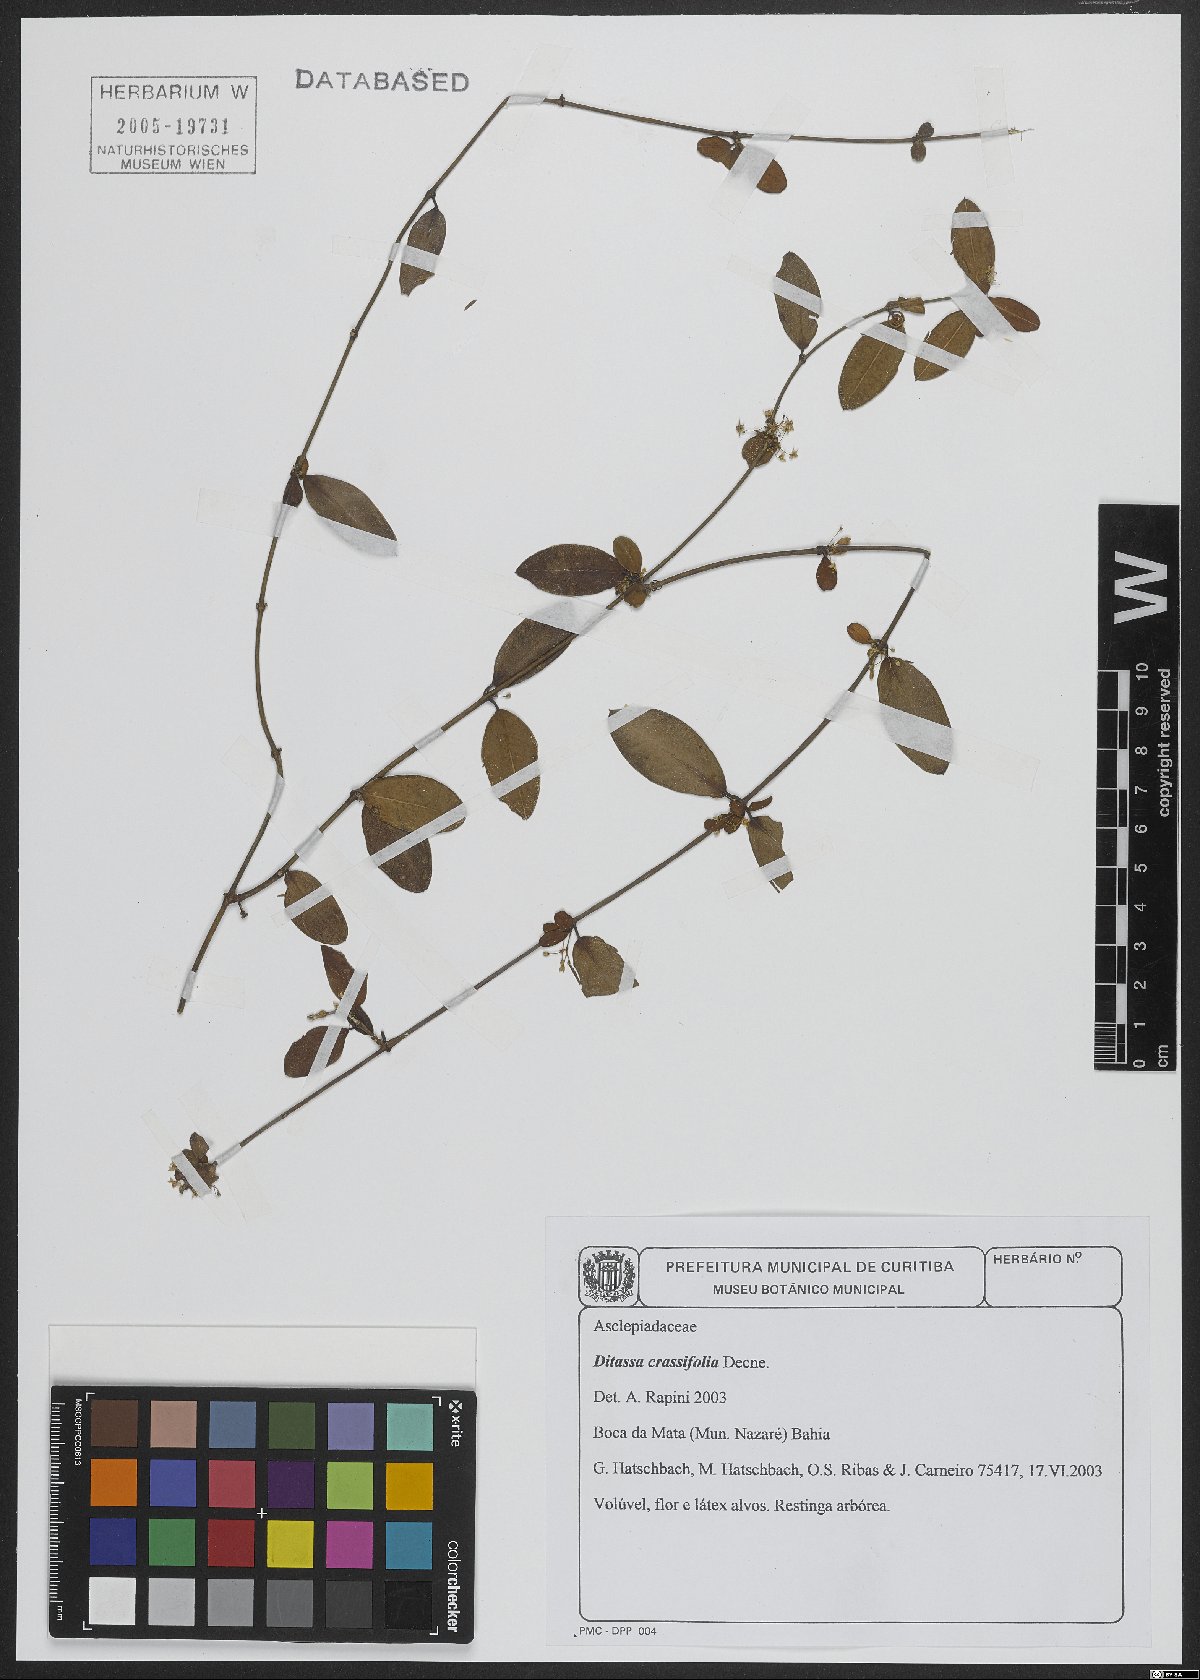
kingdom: Plantae
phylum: Tracheophyta
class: Magnoliopsida
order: Gentianales
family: Apocynaceae
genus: Ditassa
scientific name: Ditassa crassifolia
